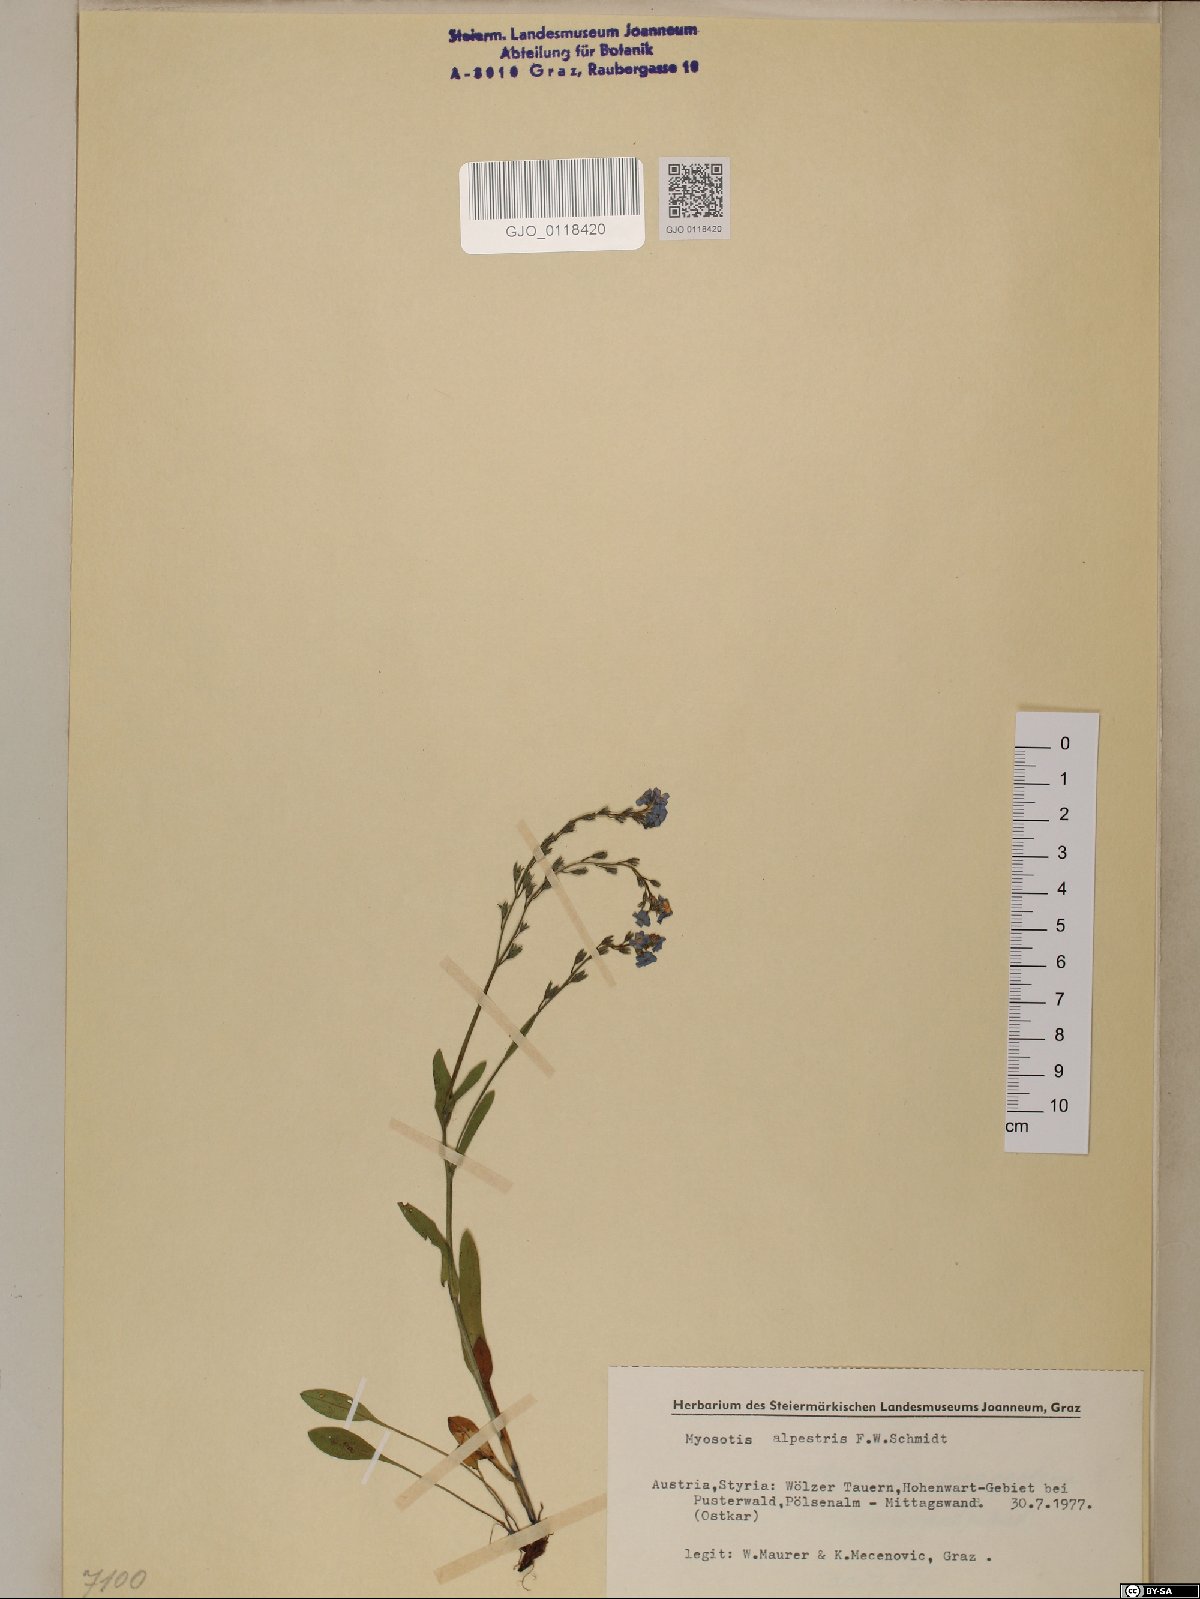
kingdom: Plantae
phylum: Tracheophyta
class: Magnoliopsida
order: Boraginales
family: Boraginaceae
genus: Myosotis
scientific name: Myosotis alpestris
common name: Alpine forget-me-not
